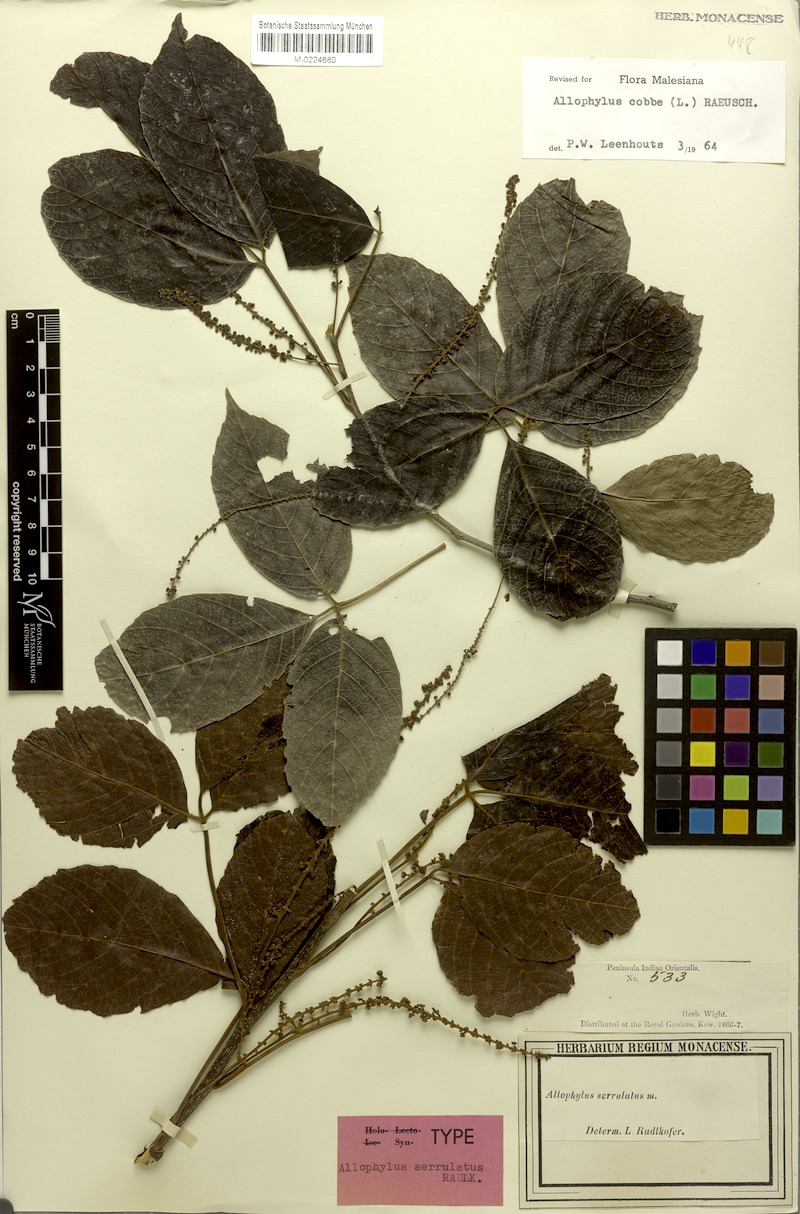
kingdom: Plantae
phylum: Tracheophyta
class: Magnoliopsida
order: Sapindales
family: Sapindaceae
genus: Allophylus
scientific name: Allophylus cobbe
